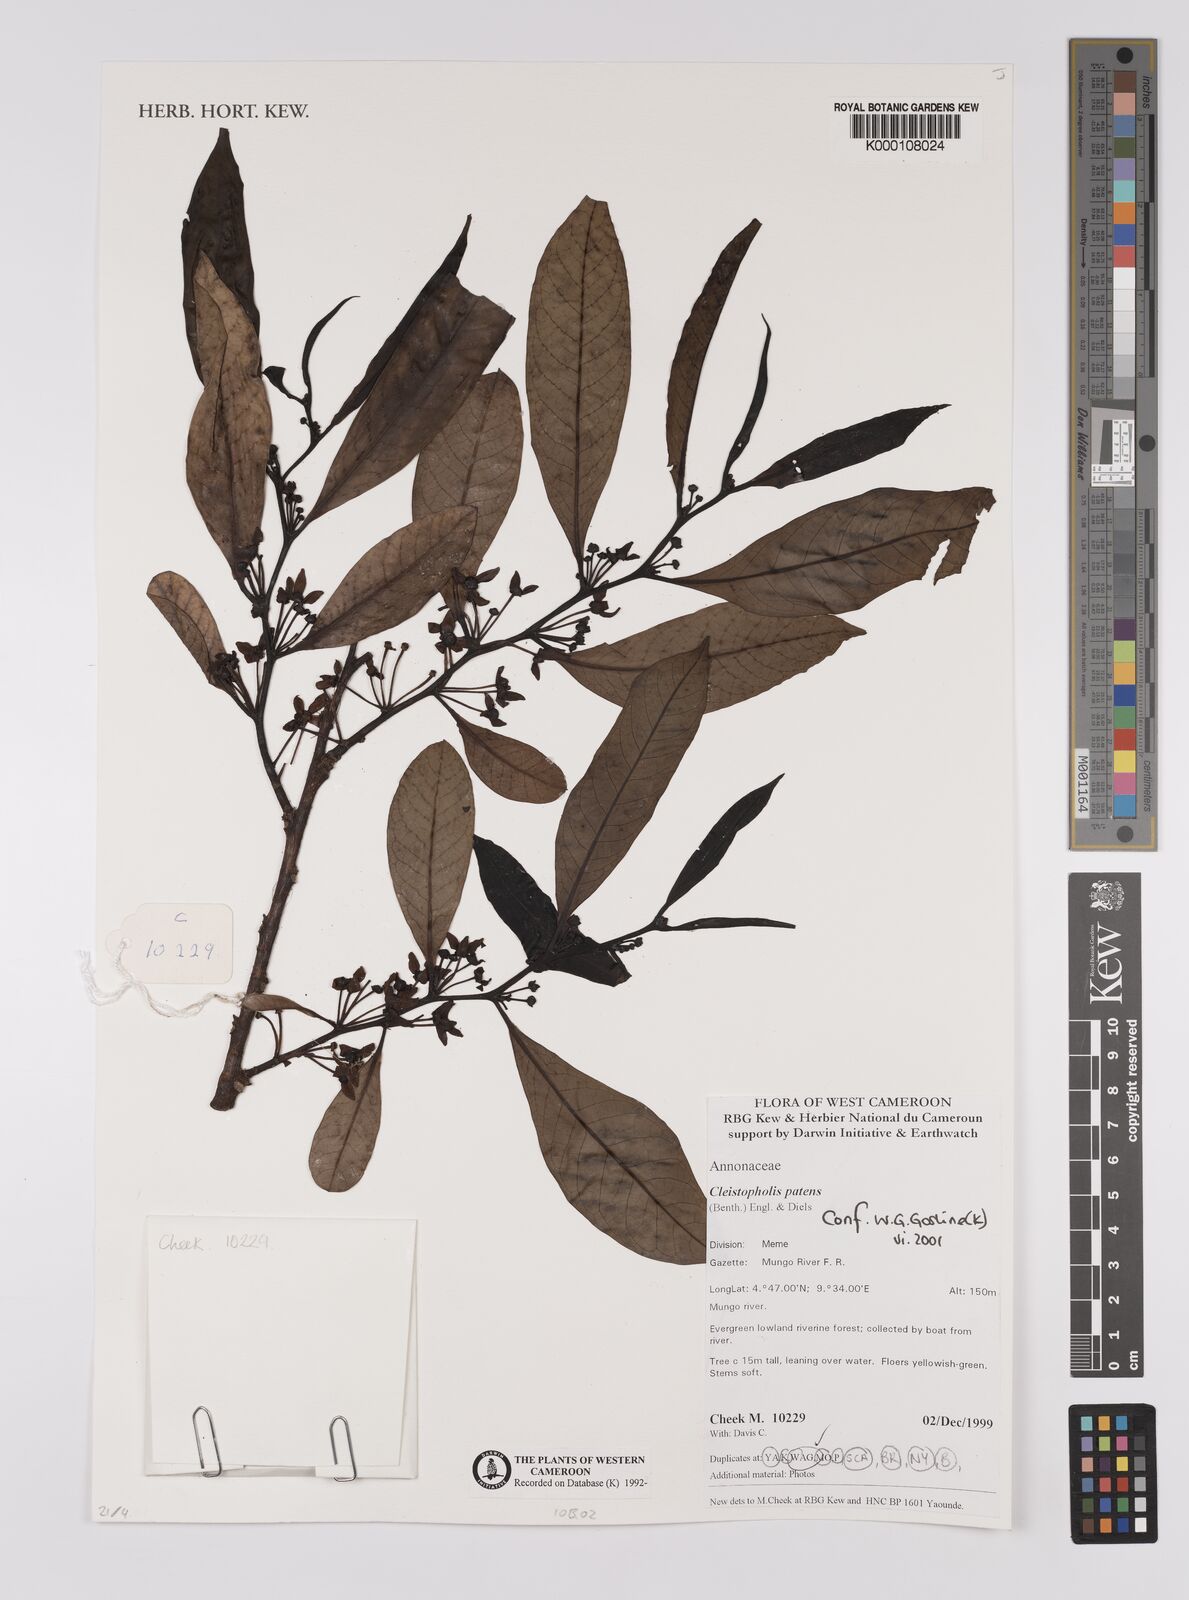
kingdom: Plantae
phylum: Tracheophyta
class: Magnoliopsida
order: Magnoliales
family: Annonaceae
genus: Cleistopholis
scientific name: Cleistopholis patens
